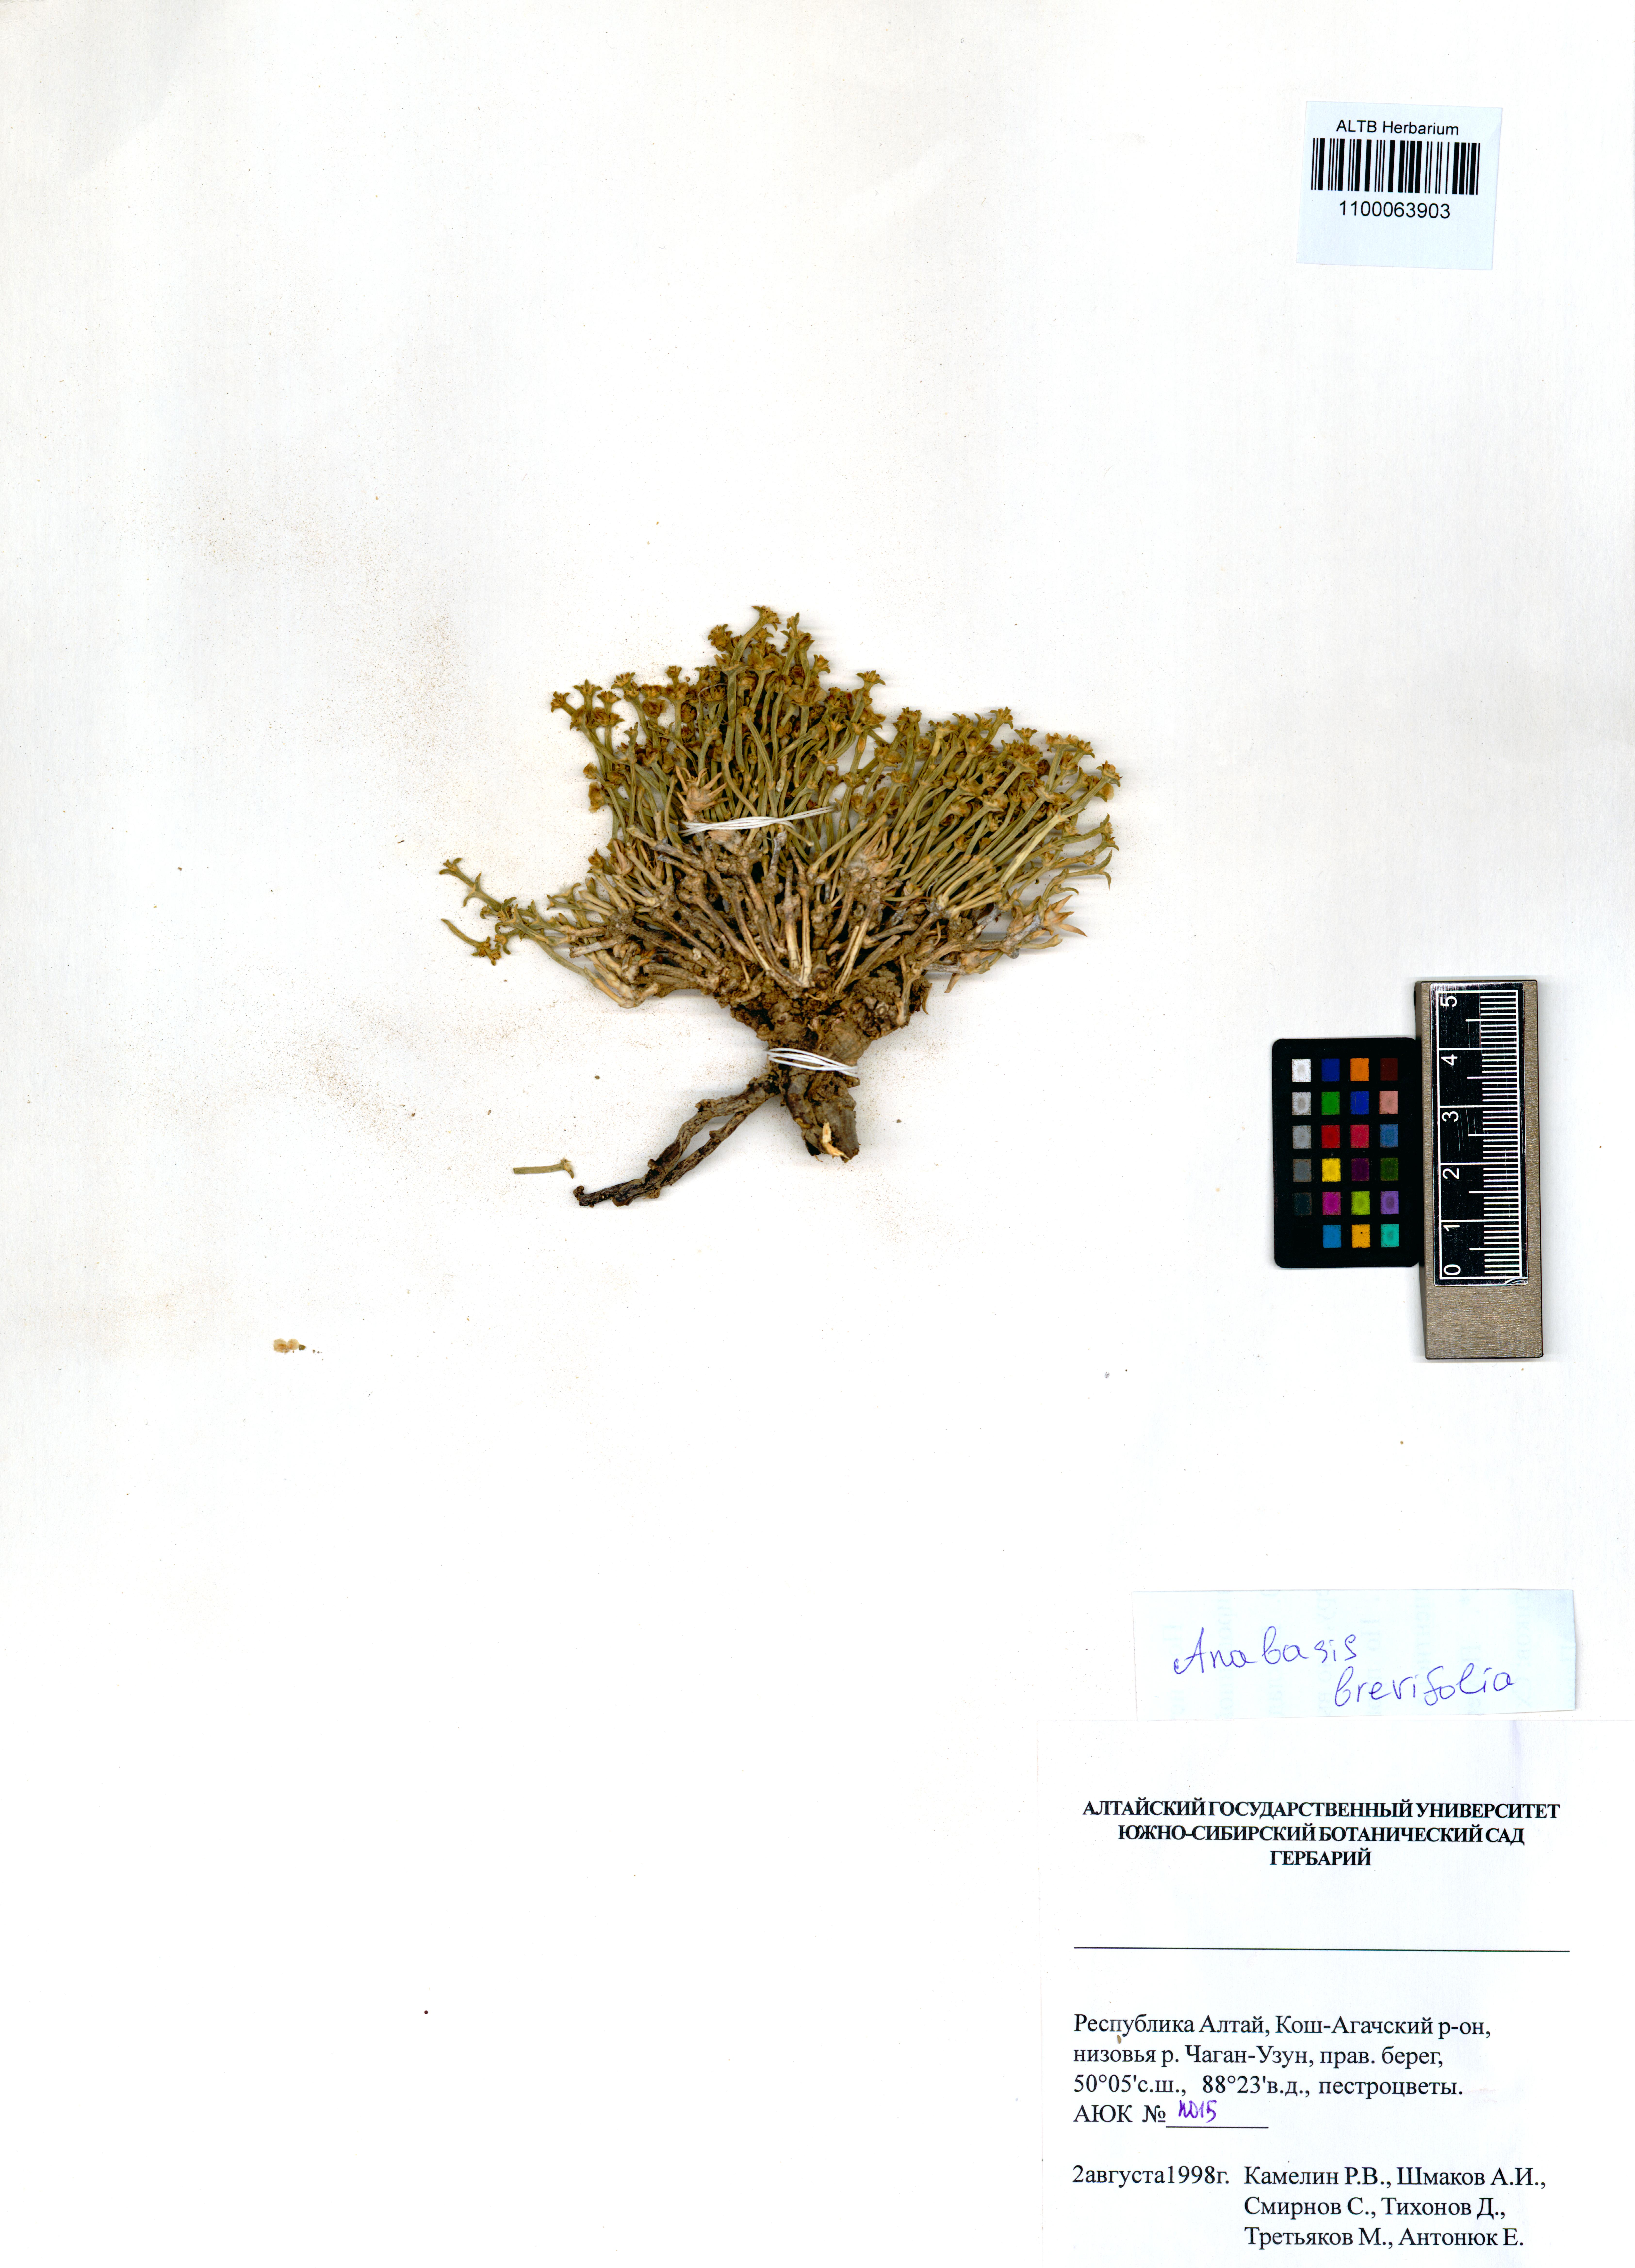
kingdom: Plantae
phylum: Tracheophyta
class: Magnoliopsida
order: Caryophyllales
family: Amaranthaceae
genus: Anabasis
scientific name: Anabasis brevifolia
